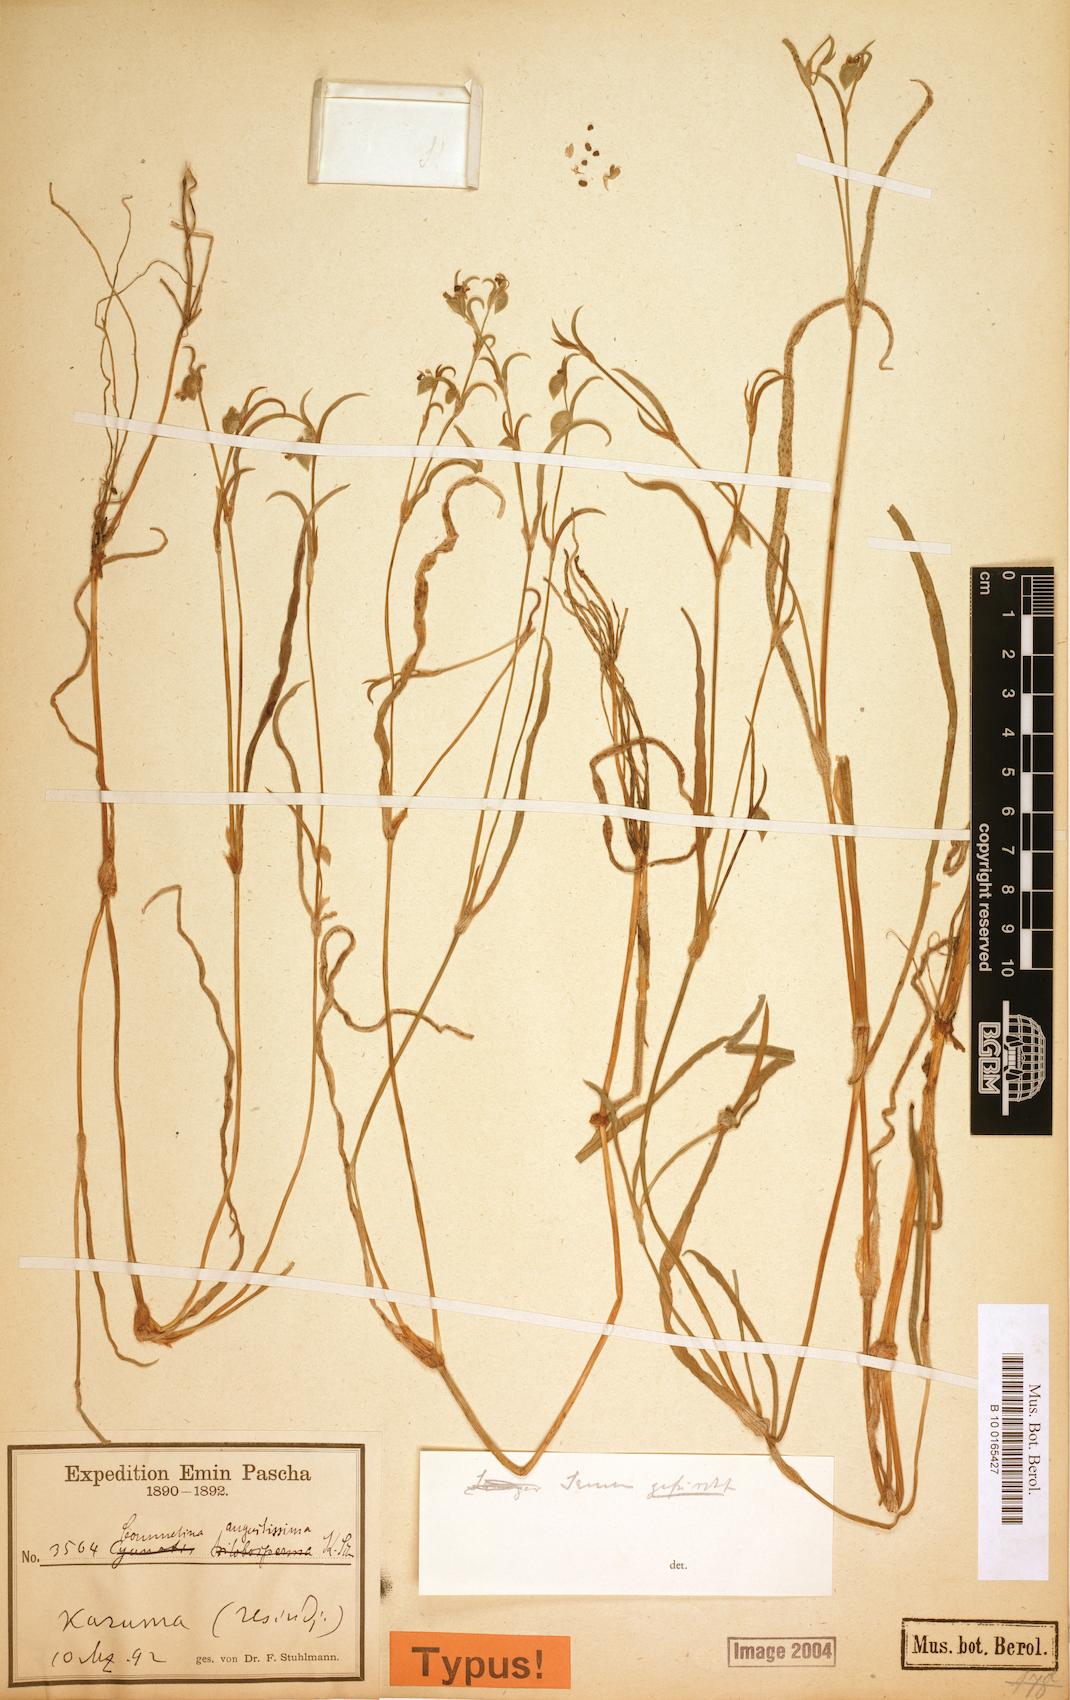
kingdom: Plantae
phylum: Tracheophyta
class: Liliopsida
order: Commelinales
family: Commelinaceae
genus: Commelina
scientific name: Commelina subulata
